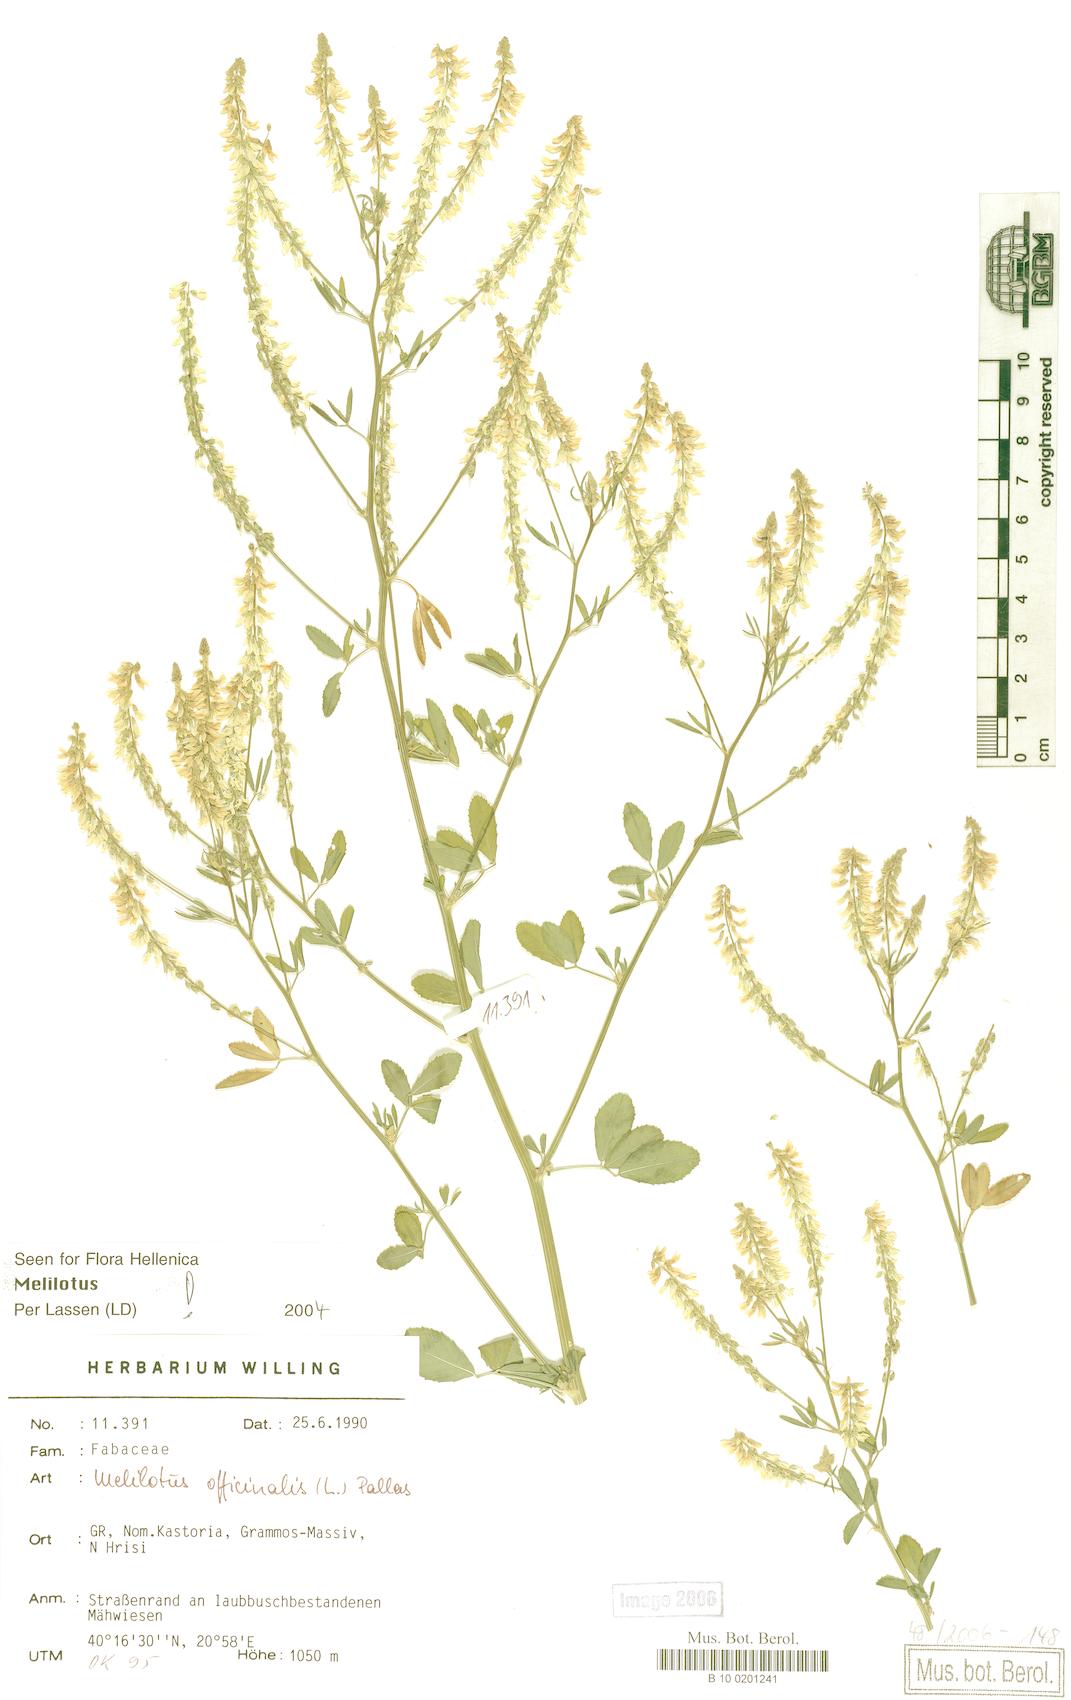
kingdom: Plantae
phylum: Tracheophyta
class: Magnoliopsida
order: Fabales
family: Fabaceae
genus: Melilotus
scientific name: Melilotus officinalis
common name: Sweetclover
